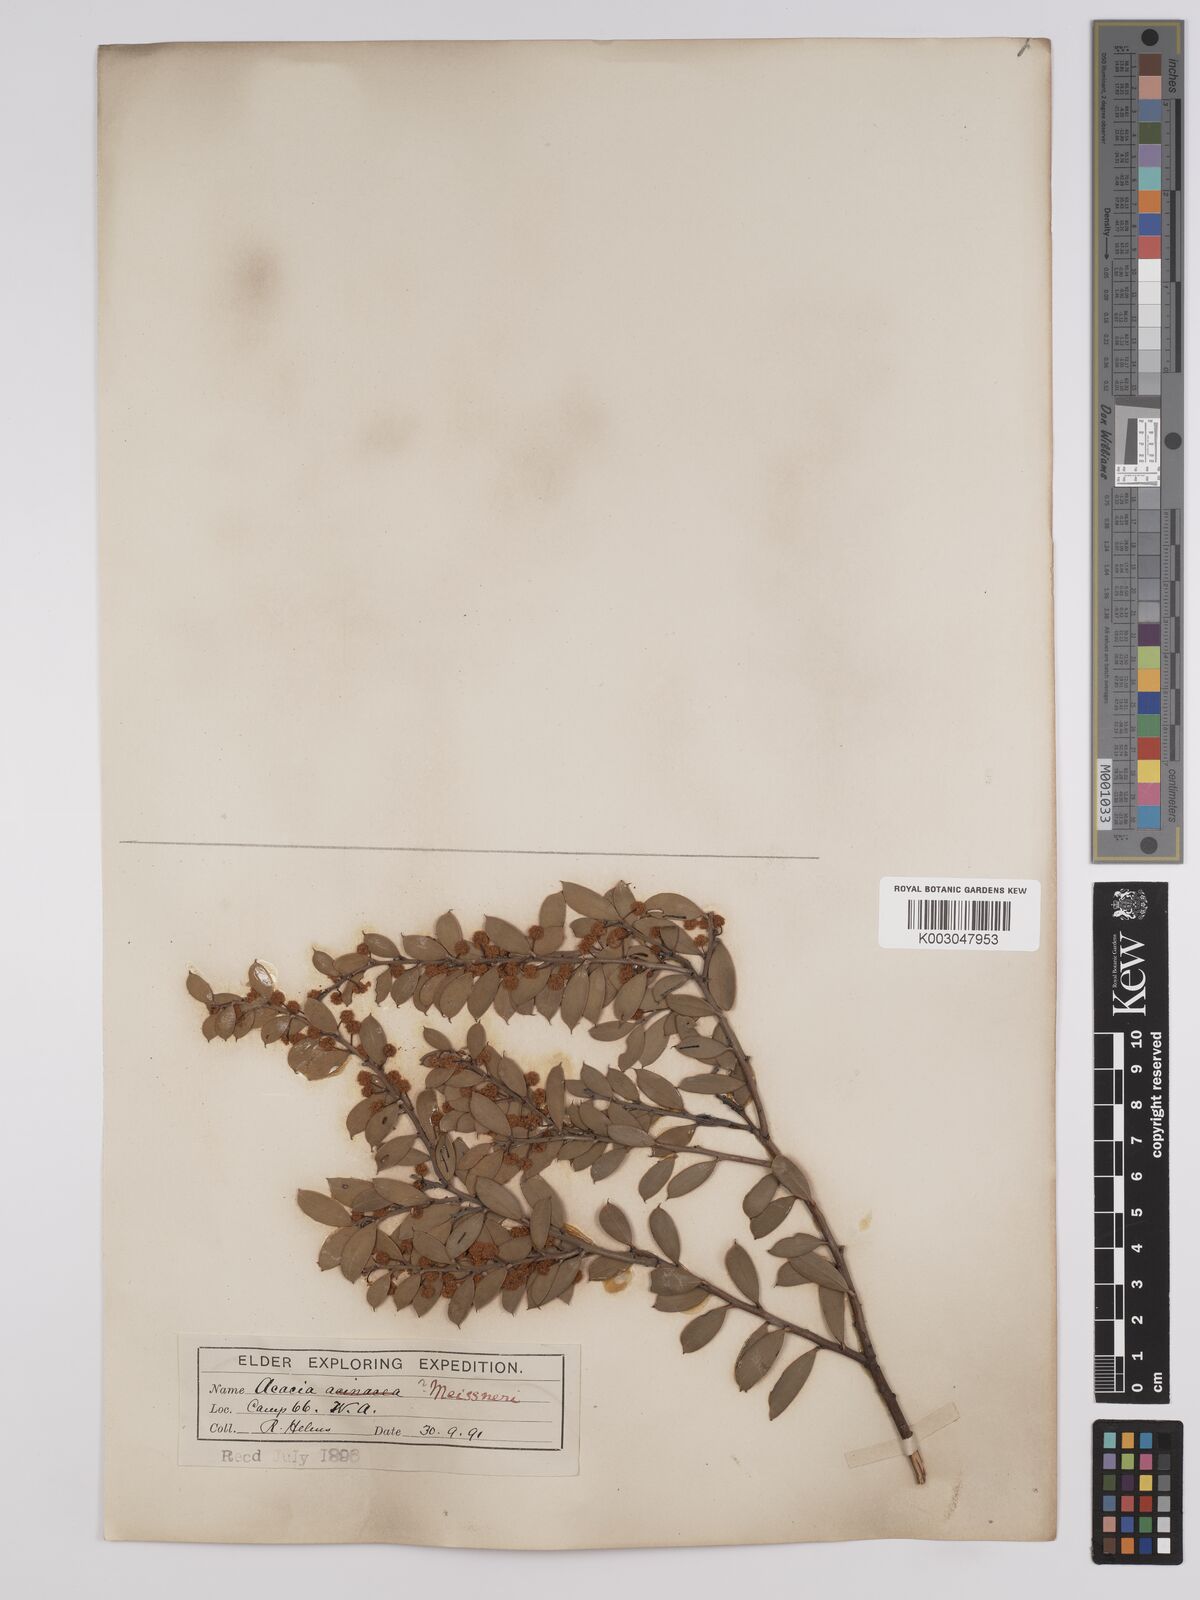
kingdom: Plantae
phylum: Tracheophyta
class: Magnoliopsida
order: Fabales
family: Fabaceae
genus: Acacia
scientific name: Acacia merrallii
